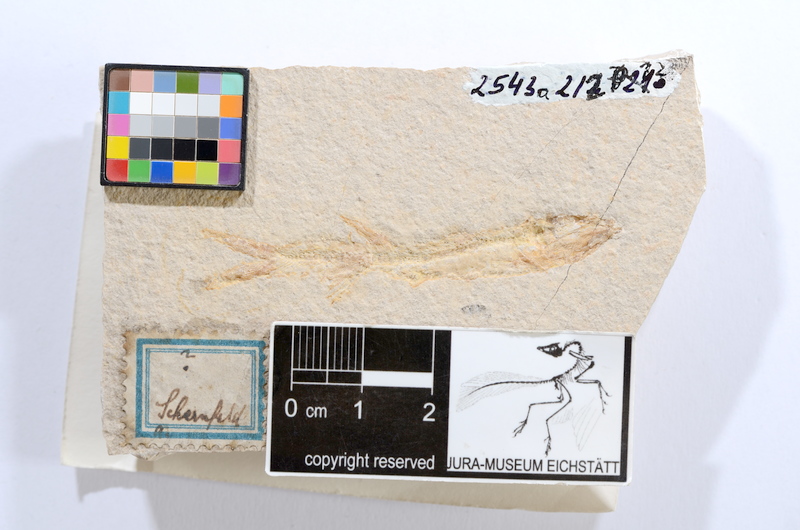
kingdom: Animalia
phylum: Chordata
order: Elopiformes
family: Anaethalionidae
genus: Anaethalion
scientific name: Anaethalion angustissimus
